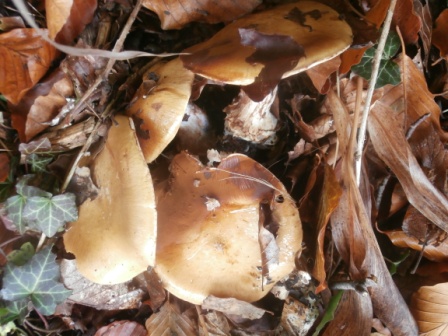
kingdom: Fungi
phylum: Basidiomycota
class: Agaricomycetes
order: Agaricales
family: Cortinariaceae
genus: Cortinarius
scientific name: Cortinarius anserinus
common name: bøge-slørhat
